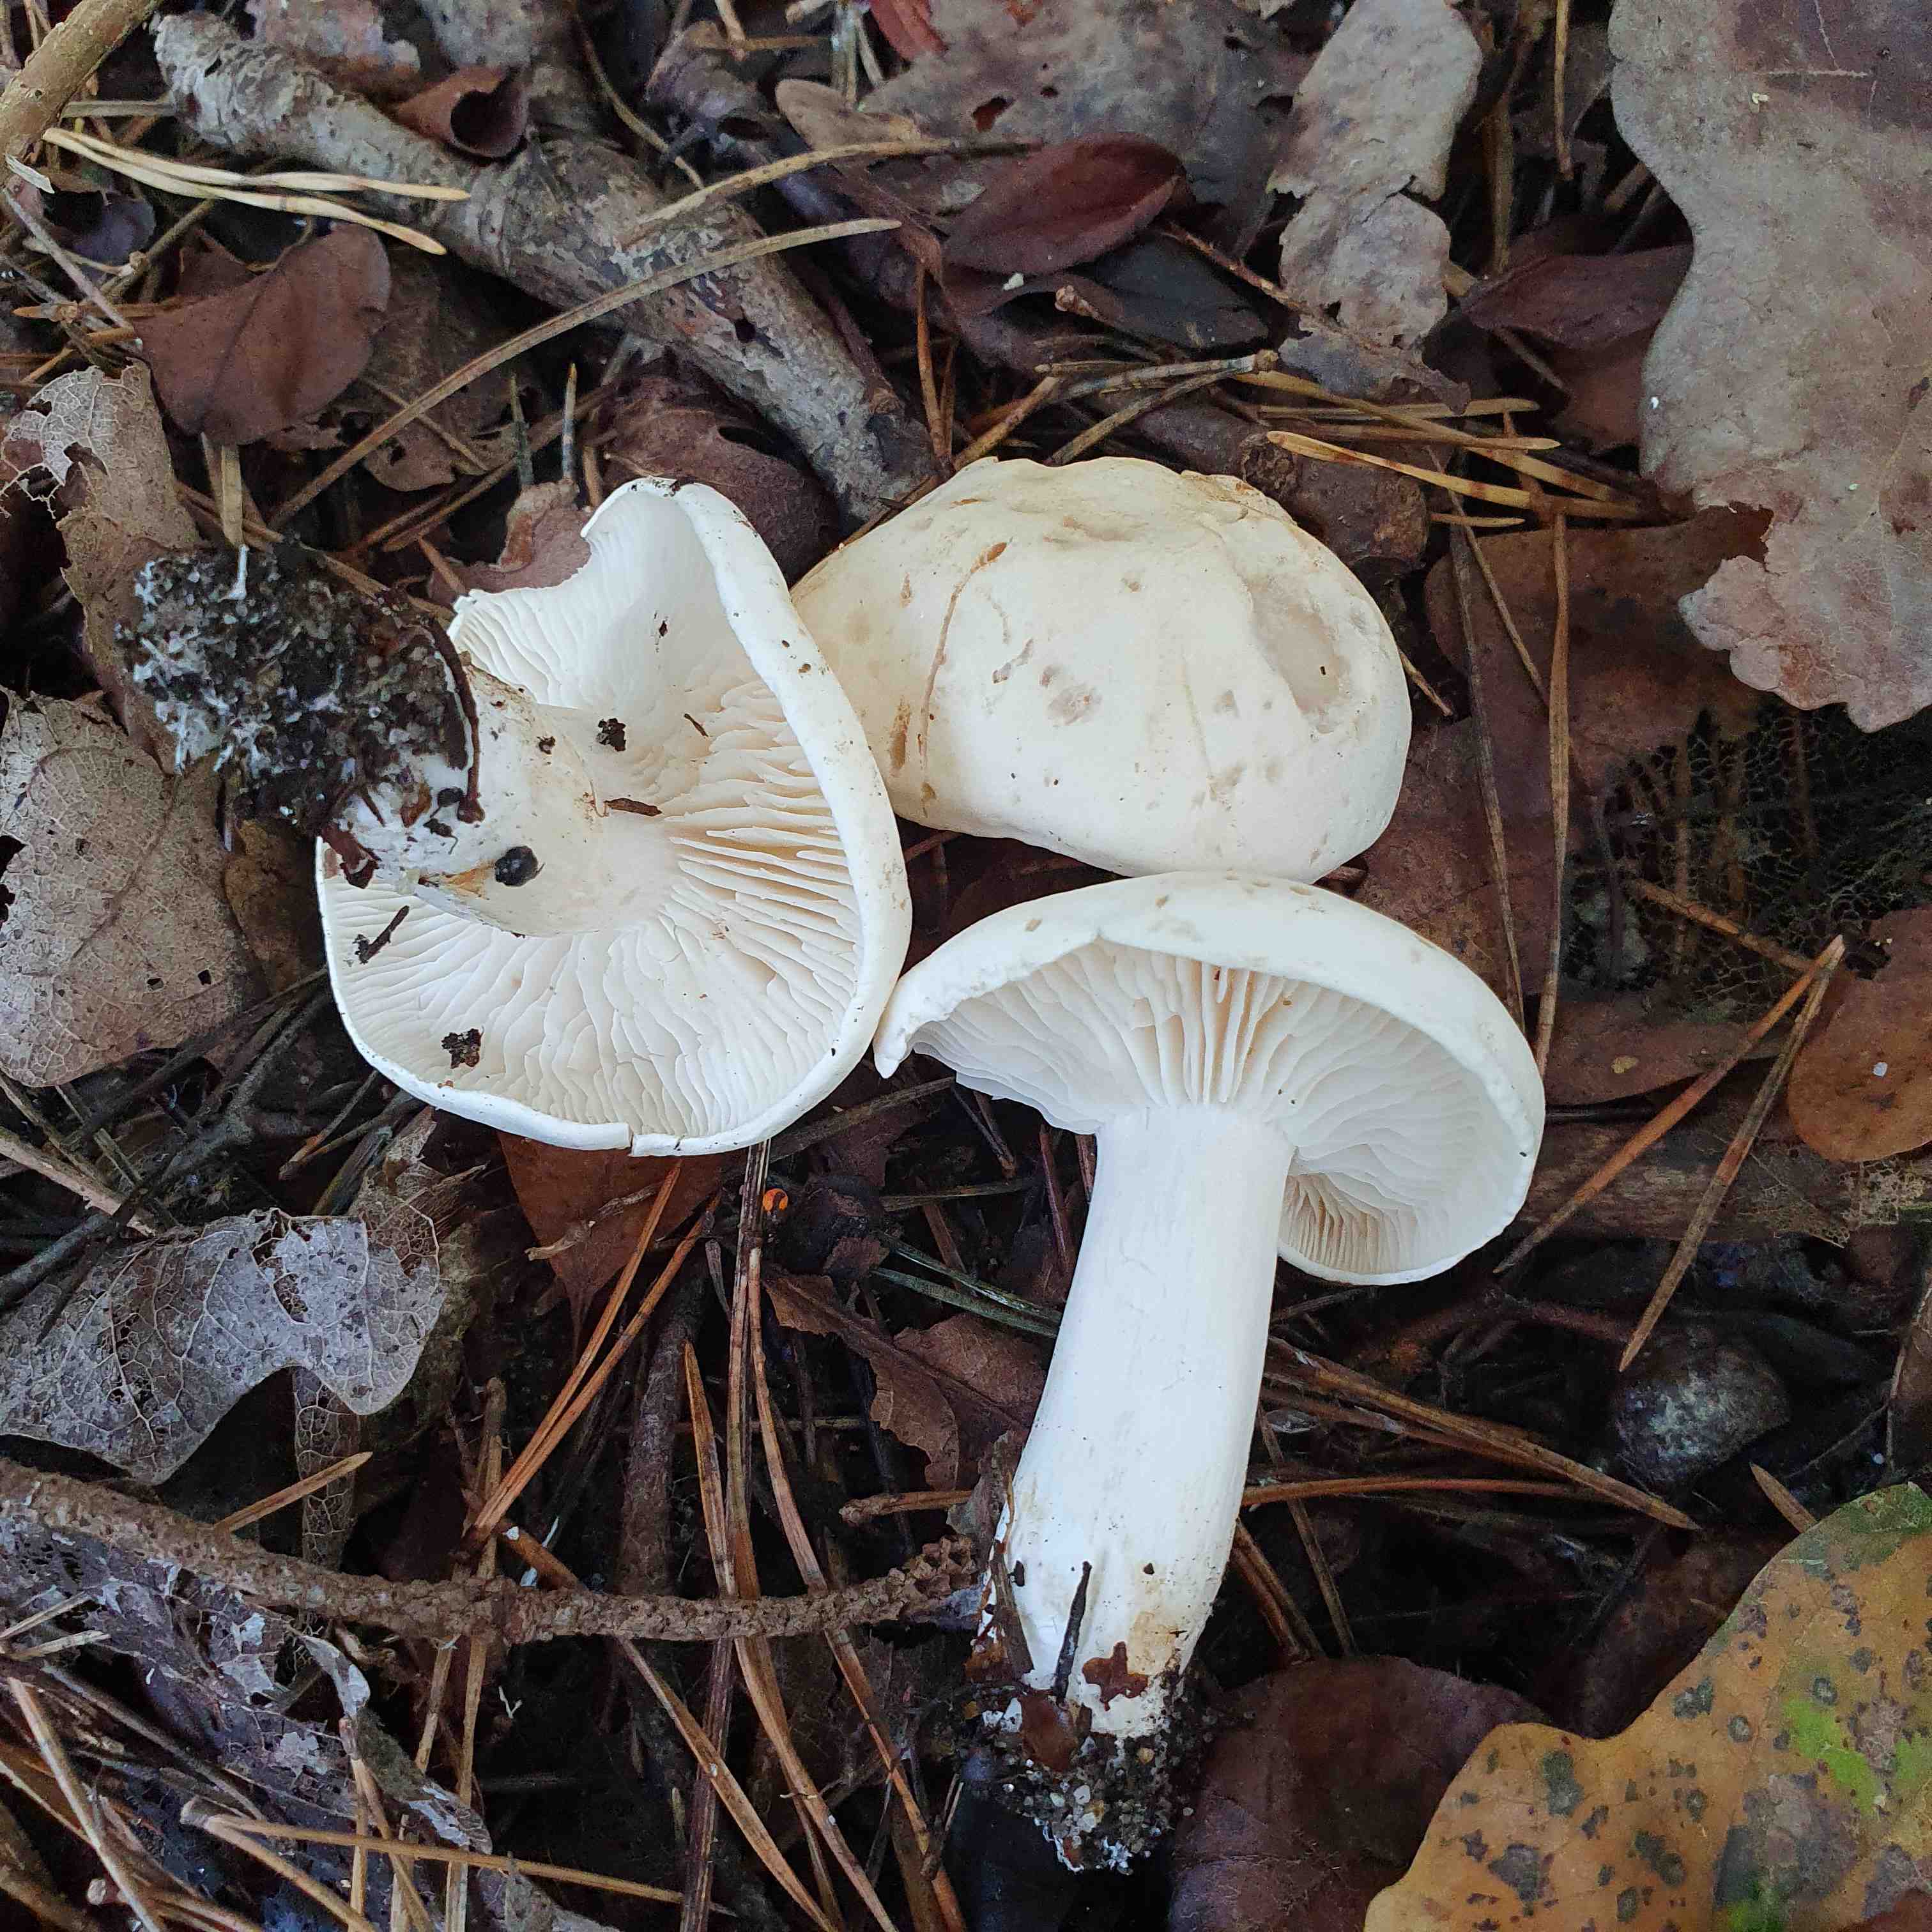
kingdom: Fungi
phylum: Basidiomycota
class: Agaricomycetes
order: Agaricales
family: Tricholomataceae
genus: Tricholoma
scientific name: Tricholoma stiparophyllum
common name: hvid ridderhat
